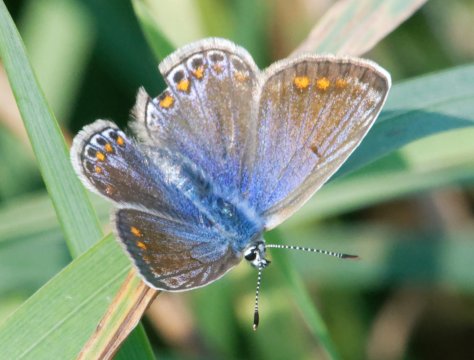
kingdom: Animalia
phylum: Arthropoda
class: Insecta
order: Lepidoptera
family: Lycaenidae
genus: Polyommatus
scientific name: Polyommatus icarus
